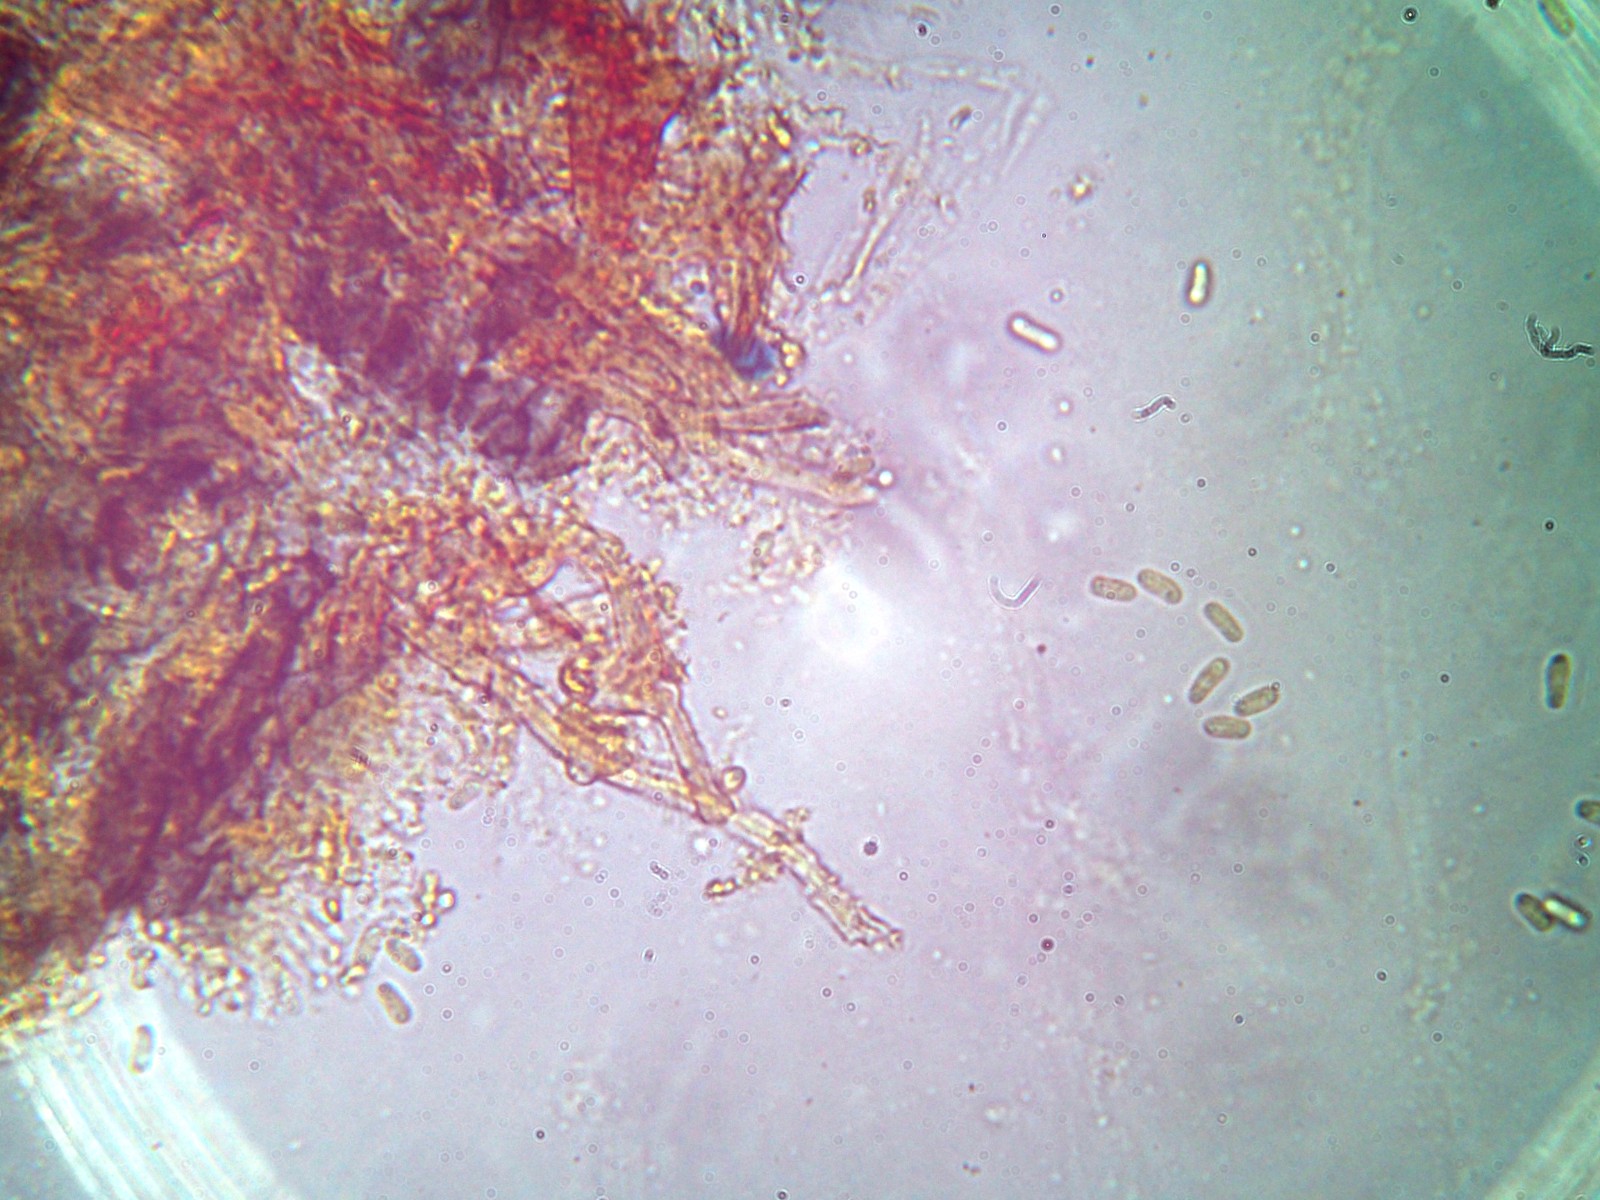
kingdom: Fungi
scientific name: Fungi
